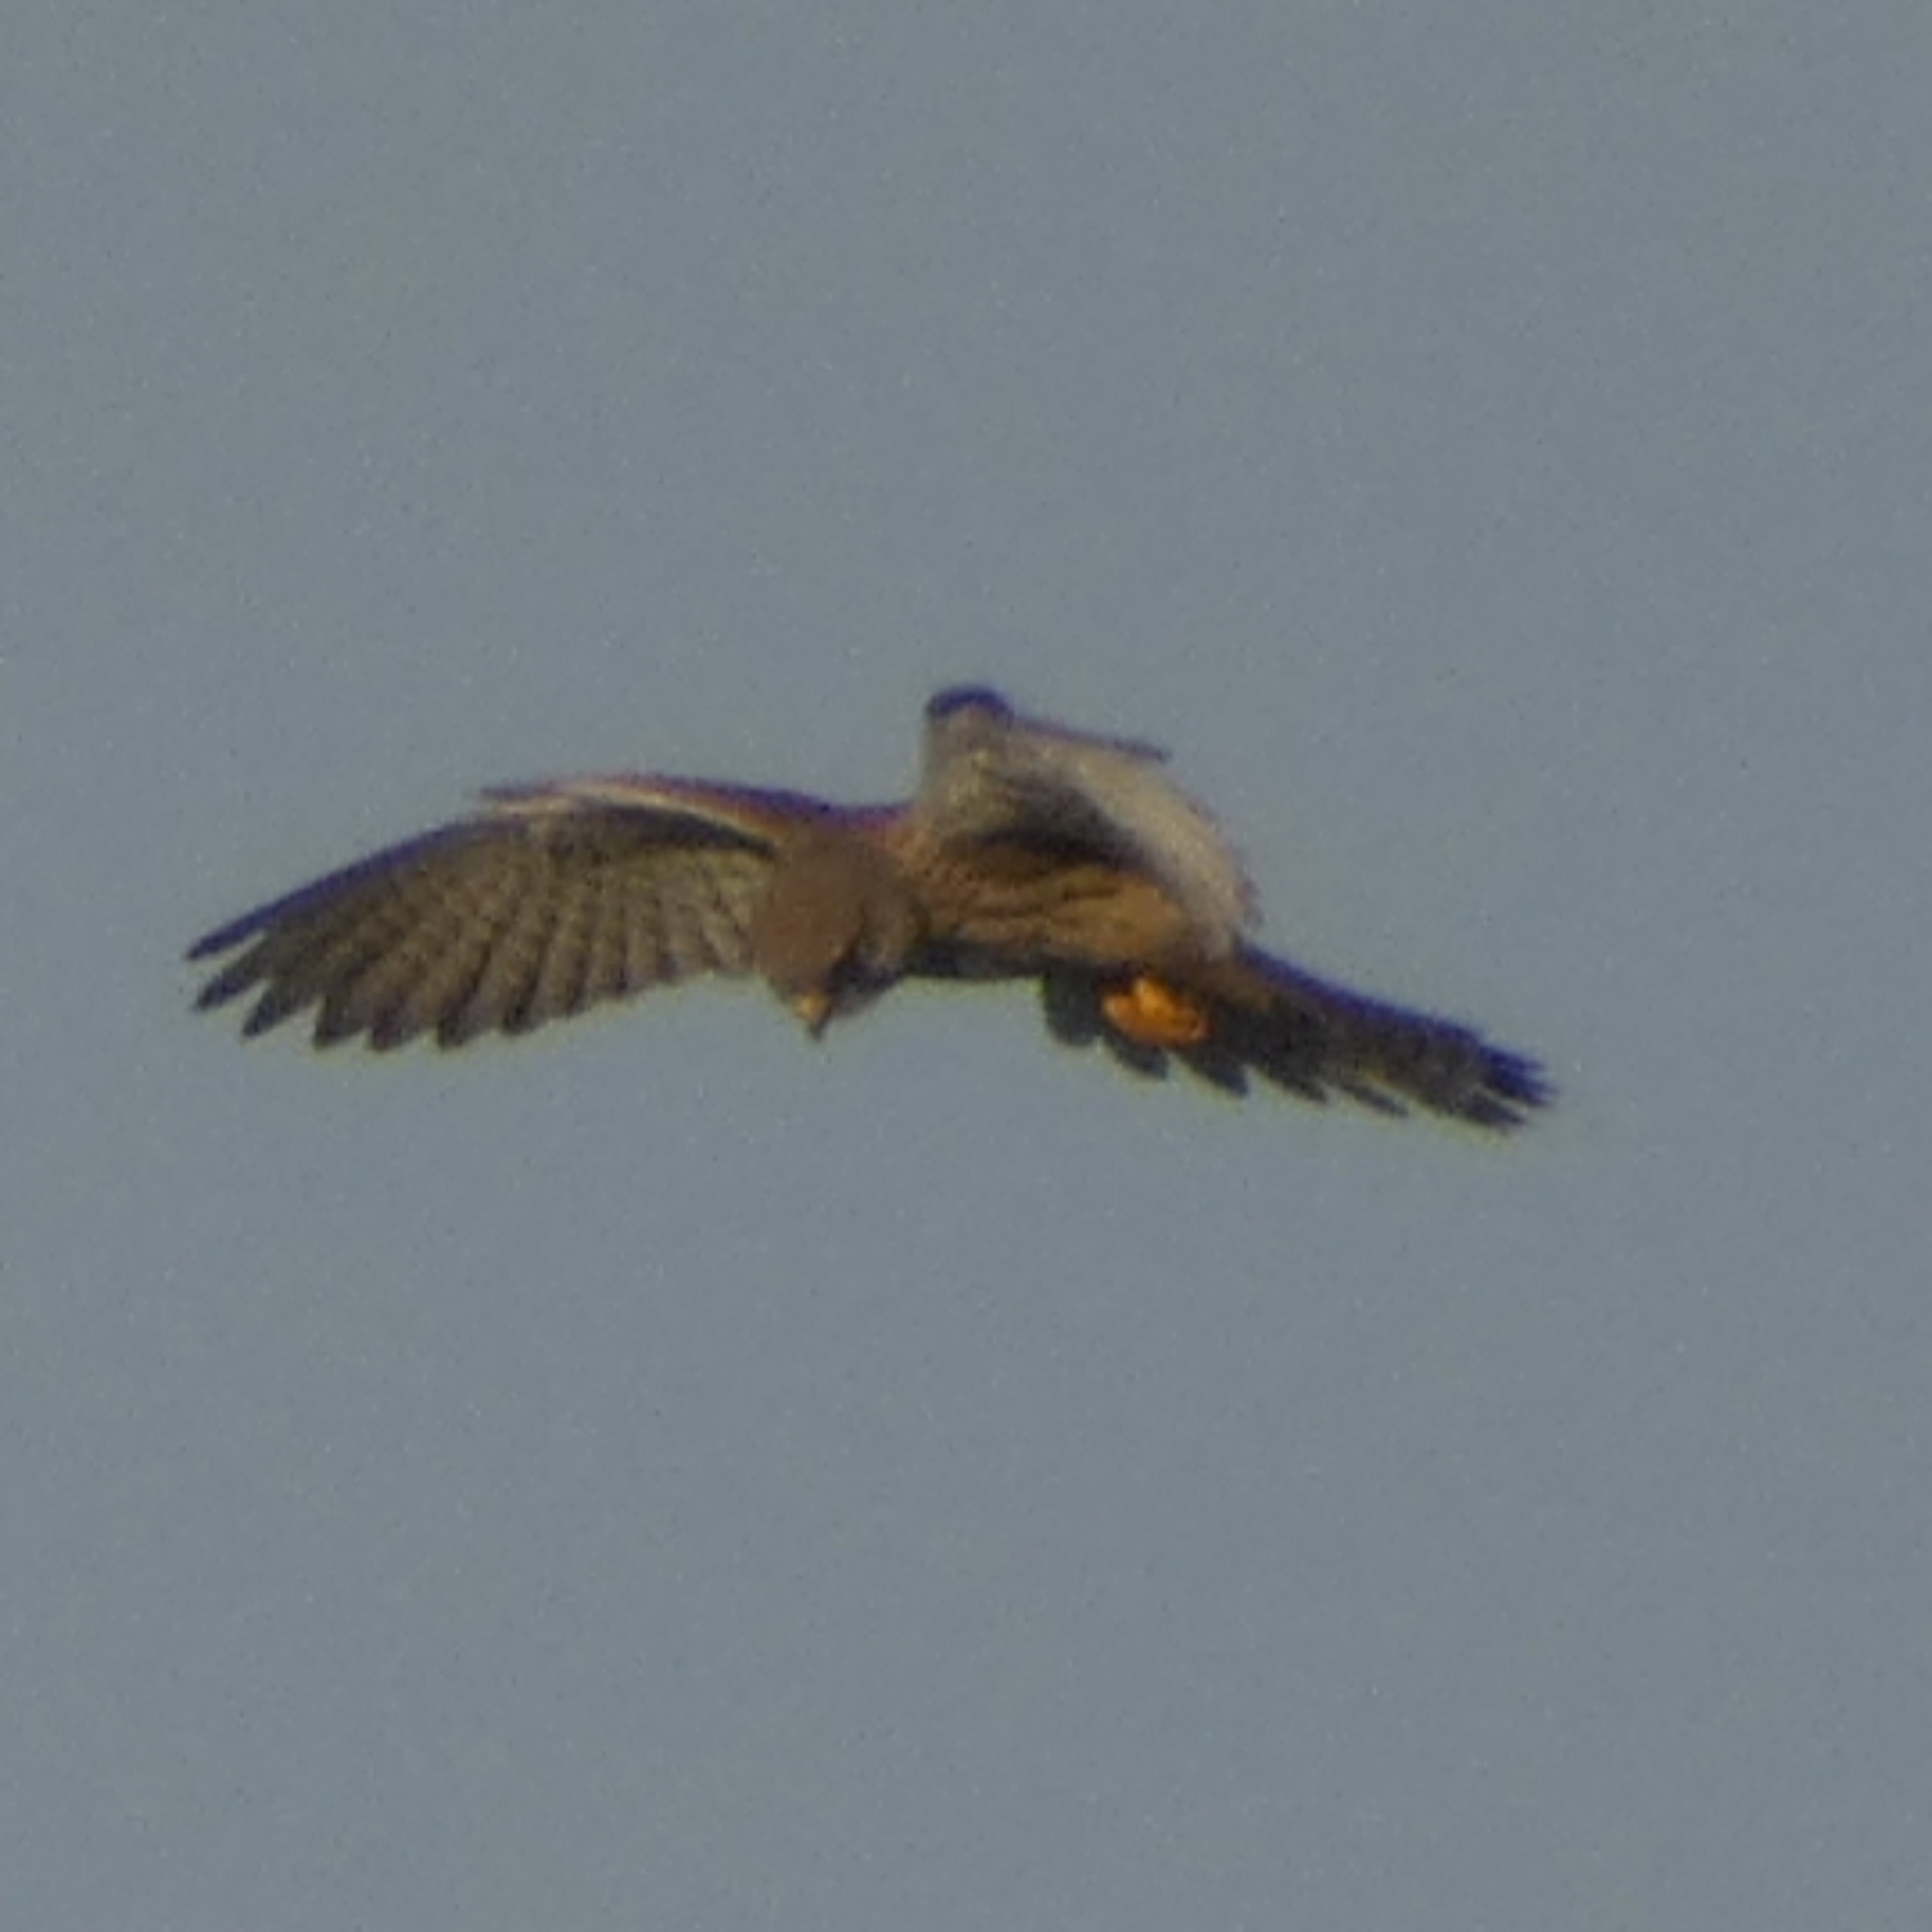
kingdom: Animalia
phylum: Chordata
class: Aves
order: Falconiformes
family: Falconidae
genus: Falco
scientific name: Falco tinnunculus
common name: Tårnfalk
